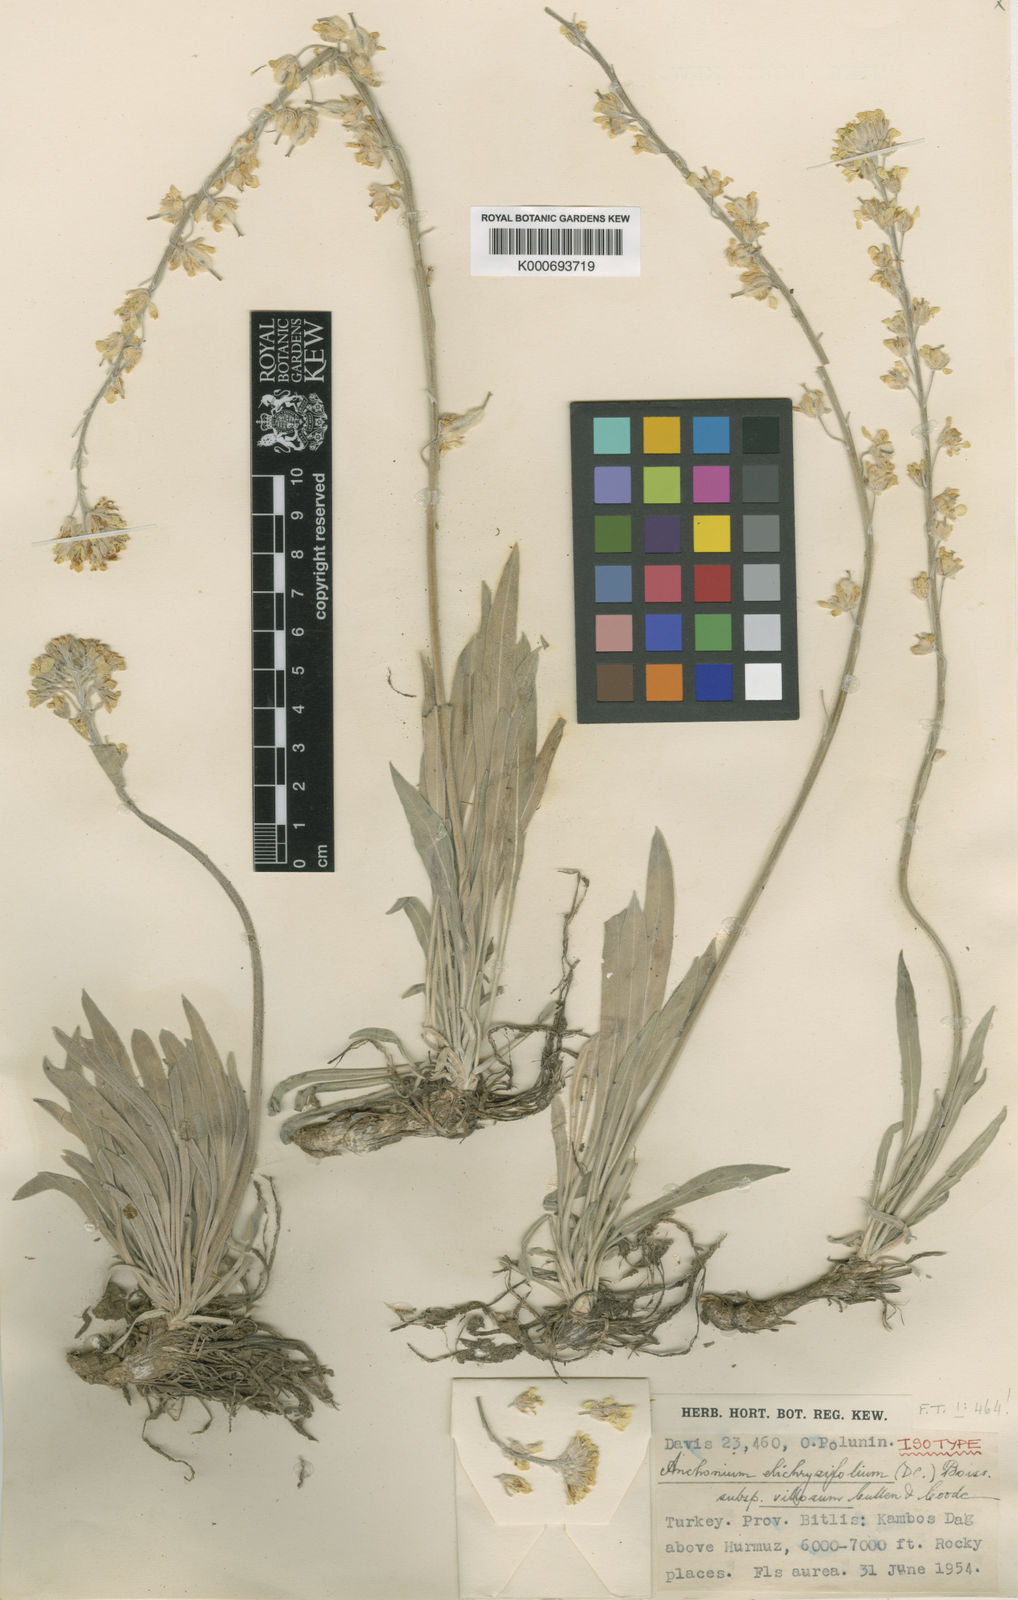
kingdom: Plantae
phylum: Tracheophyta
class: Magnoliopsida
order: Brassicales
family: Brassicaceae
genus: Anchonium
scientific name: Anchonium elichrysifolium
